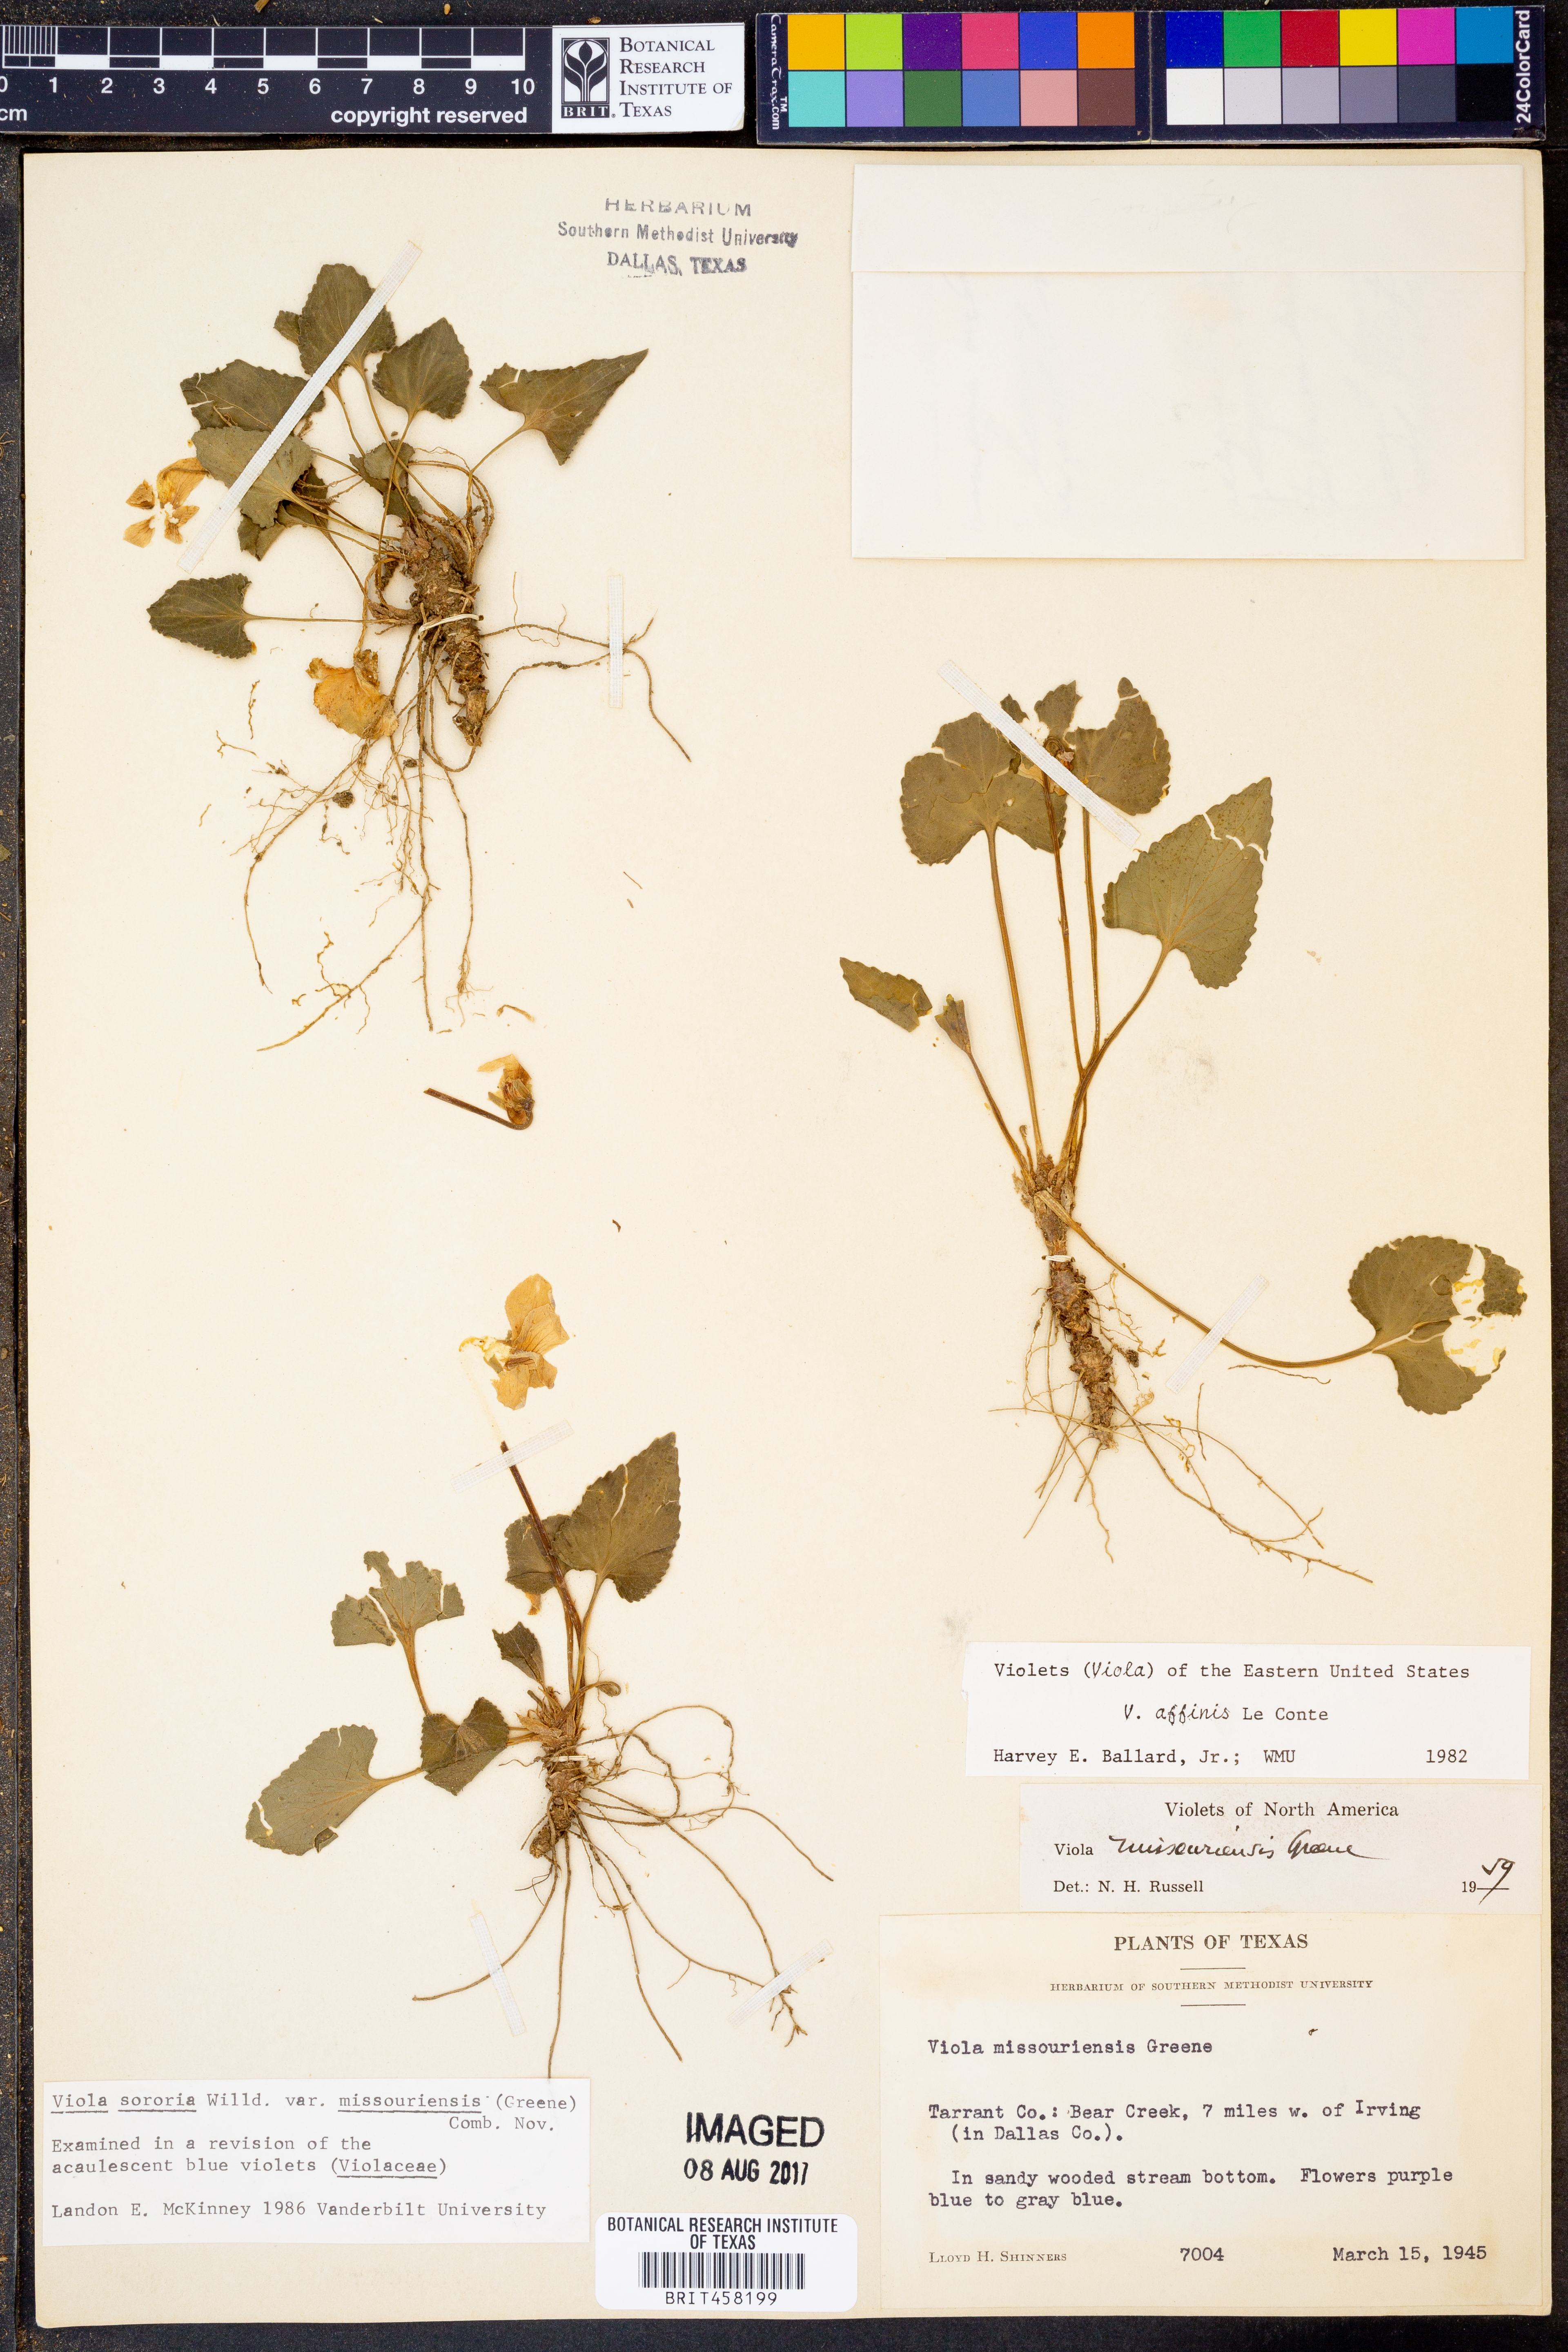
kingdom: Plantae
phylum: Tracheophyta
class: Magnoliopsida
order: Malpighiales
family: Violaceae
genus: Viola
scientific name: Viola missouriensis
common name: Missouri violet
